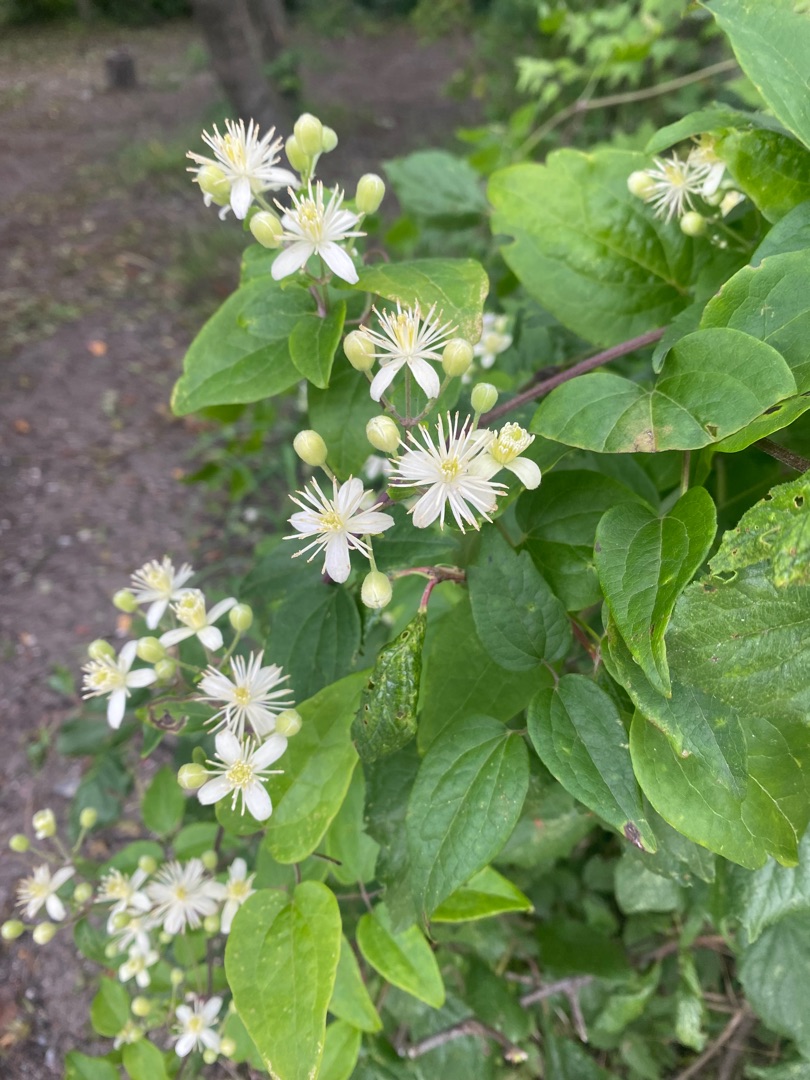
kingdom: Plantae
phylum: Tracheophyta
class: Magnoliopsida
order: Ranunculales
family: Ranunculaceae
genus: Clematis
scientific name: Clematis vitalba
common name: Skovranke
